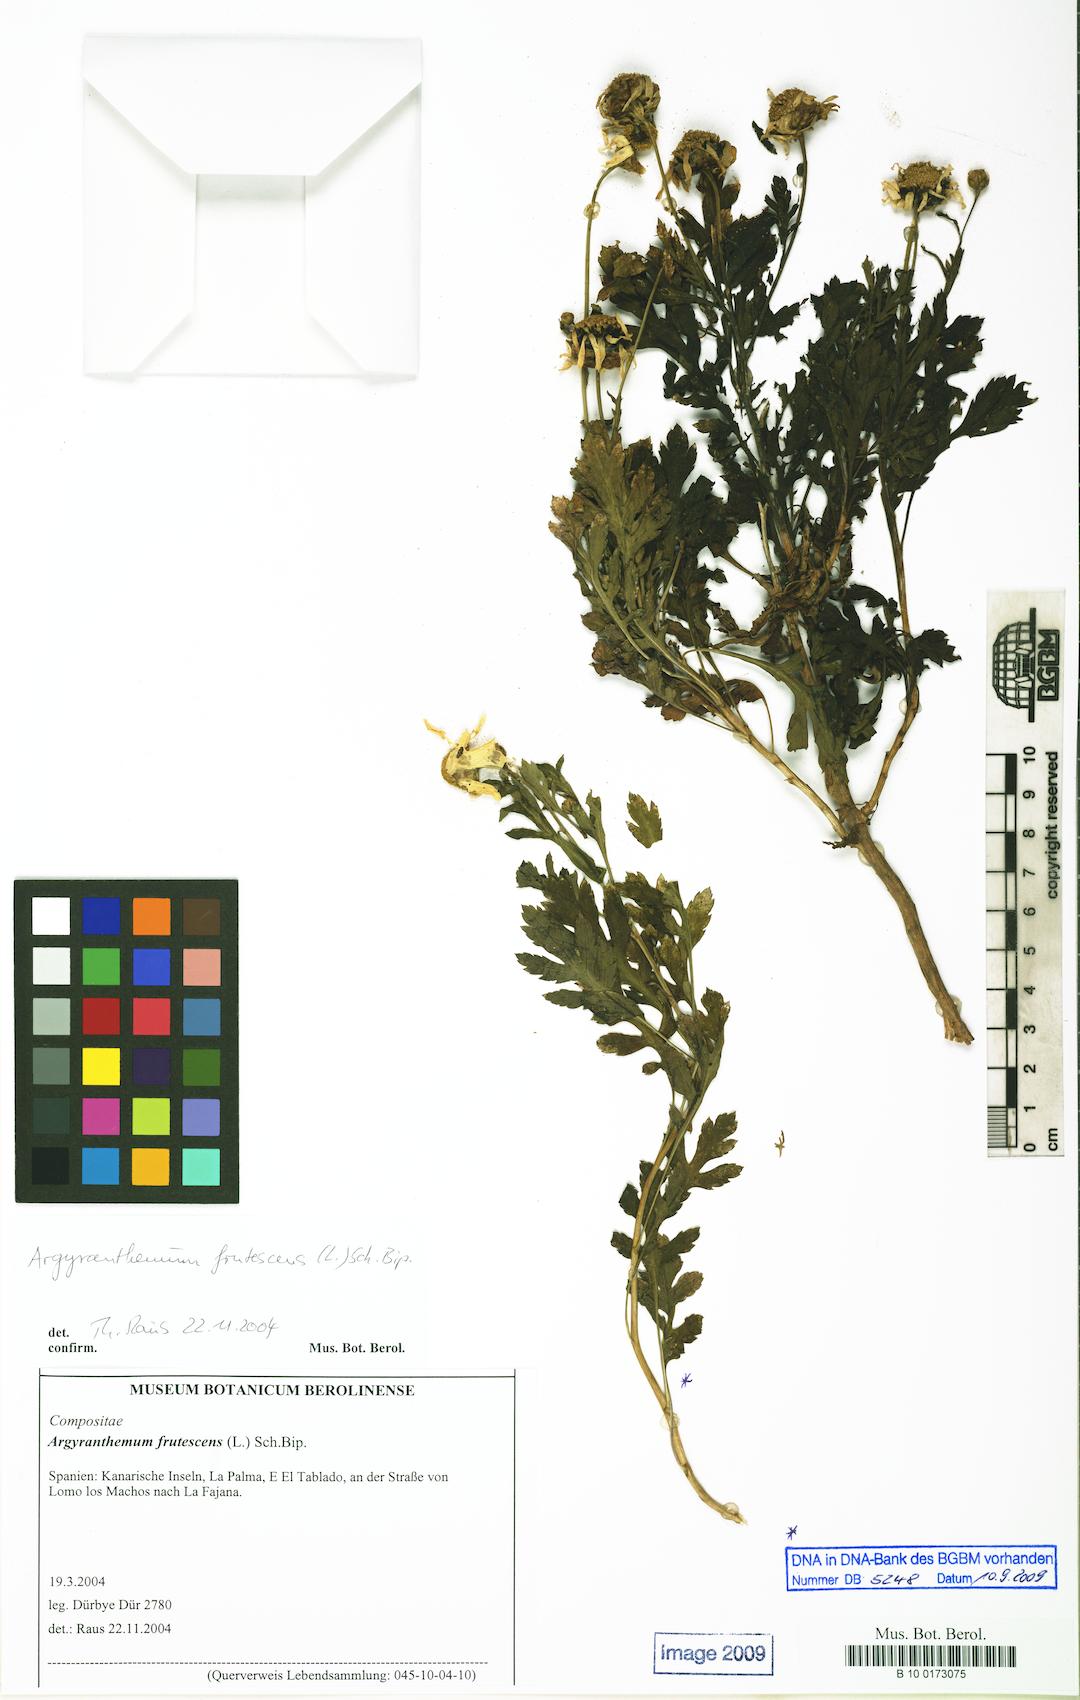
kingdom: Plantae
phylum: Tracheophyta
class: Magnoliopsida
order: Asterales
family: Asteraceae
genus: Argyranthemum
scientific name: Argyranthemum frutescens
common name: Paris daisy
